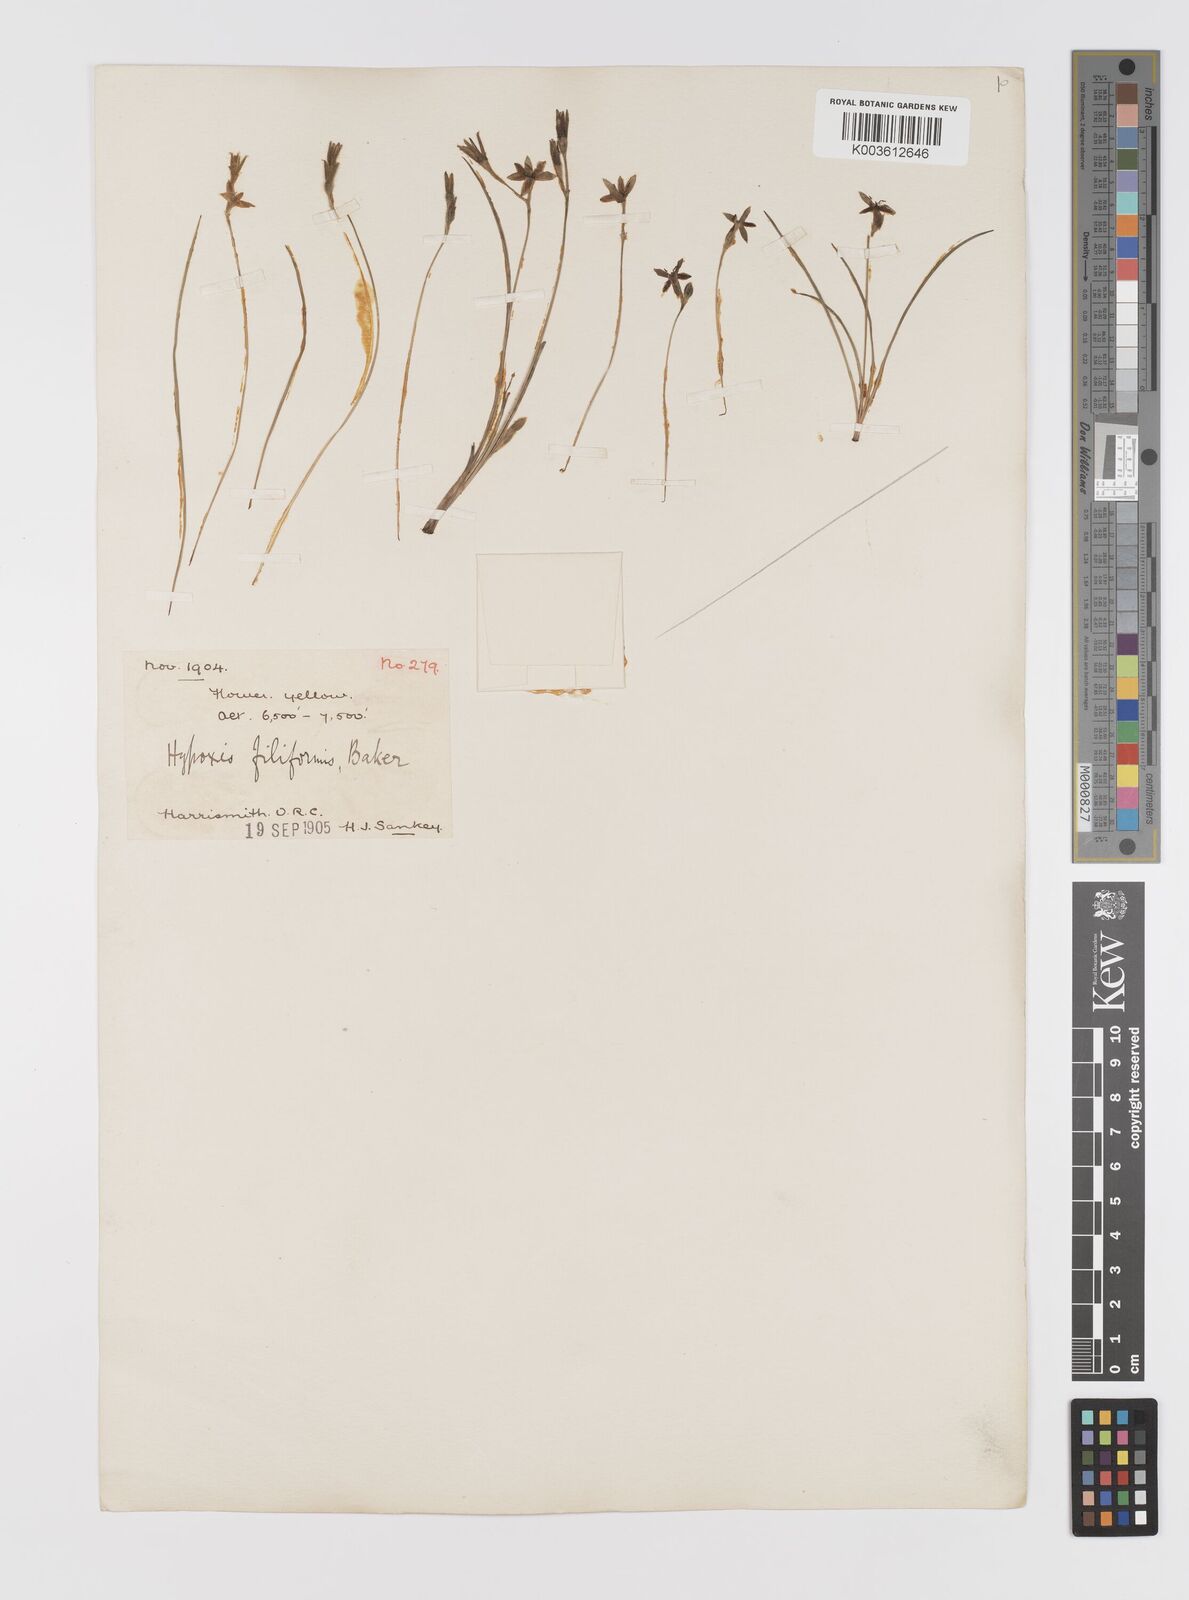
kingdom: Plantae
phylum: Tracheophyta
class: Liliopsida
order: Asparagales
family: Hypoxidaceae
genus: Hypoxis
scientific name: Hypoxis filiformis
